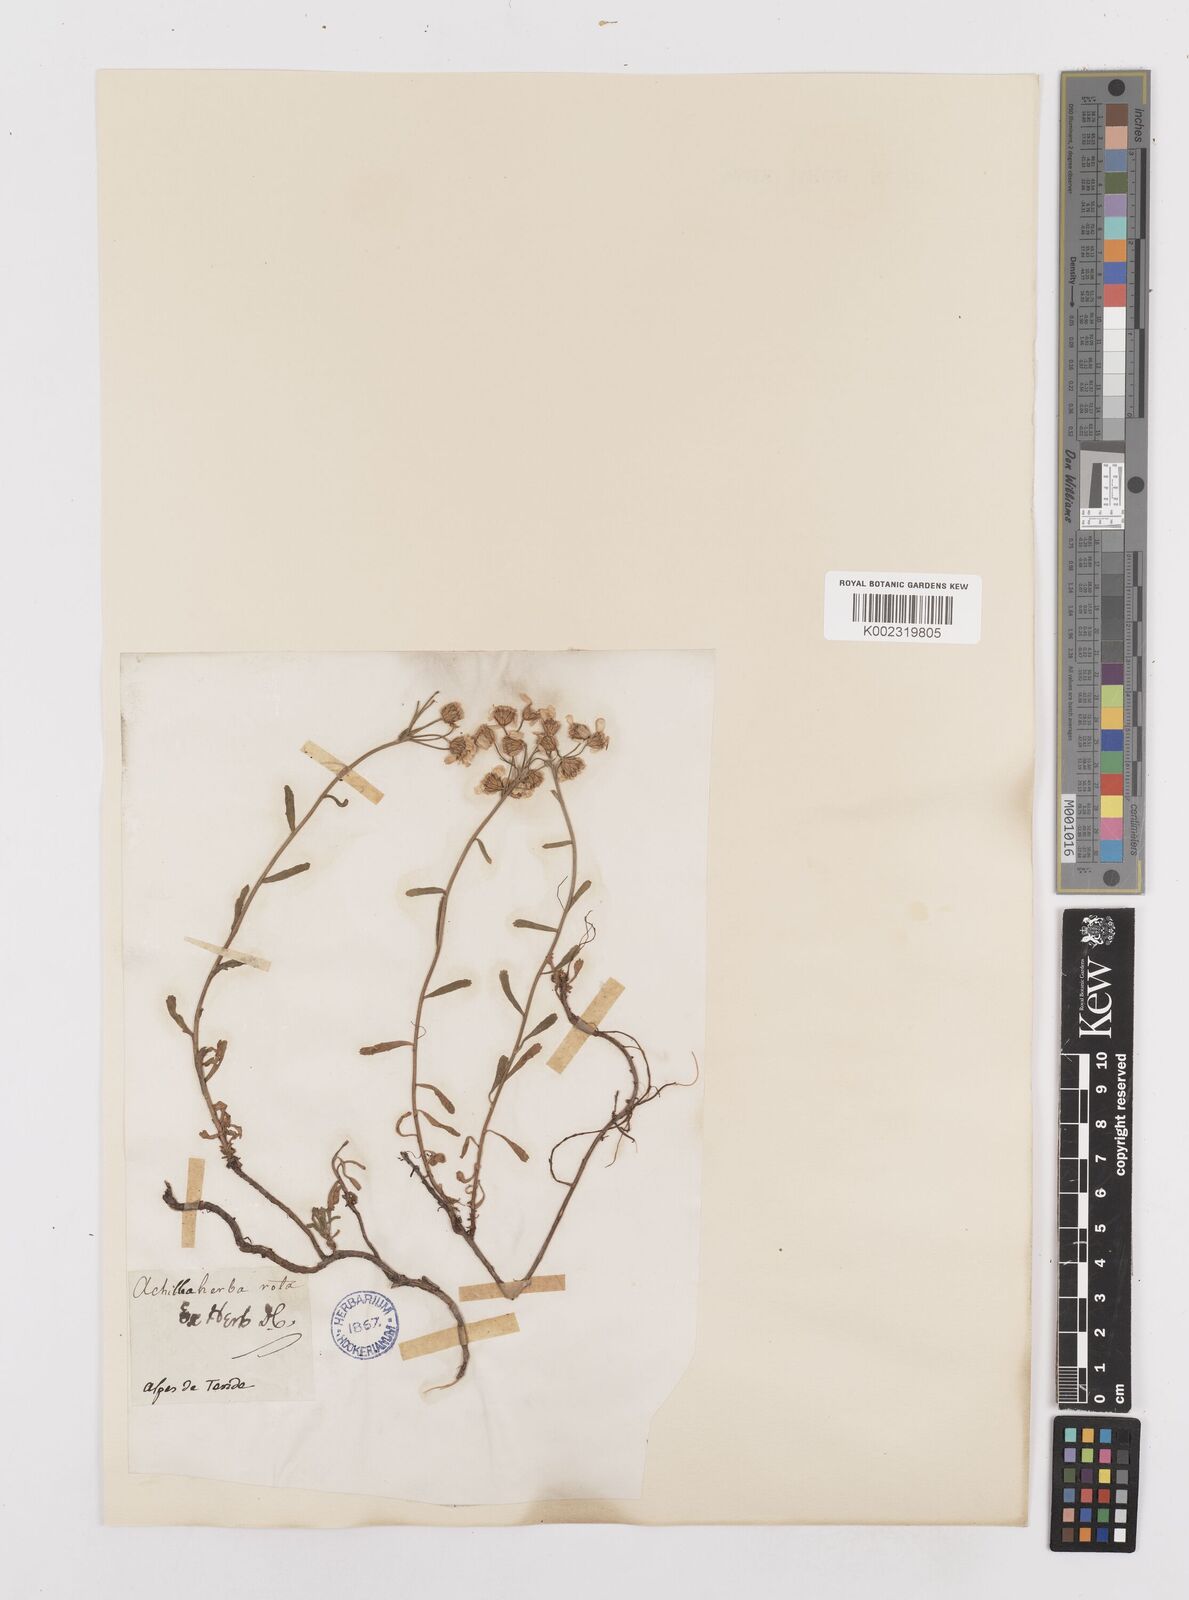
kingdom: Plantae
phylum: Tracheophyta
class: Magnoliopsida
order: Asterales
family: Asteraceae
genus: Achillea
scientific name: Achillea erba-rotta
